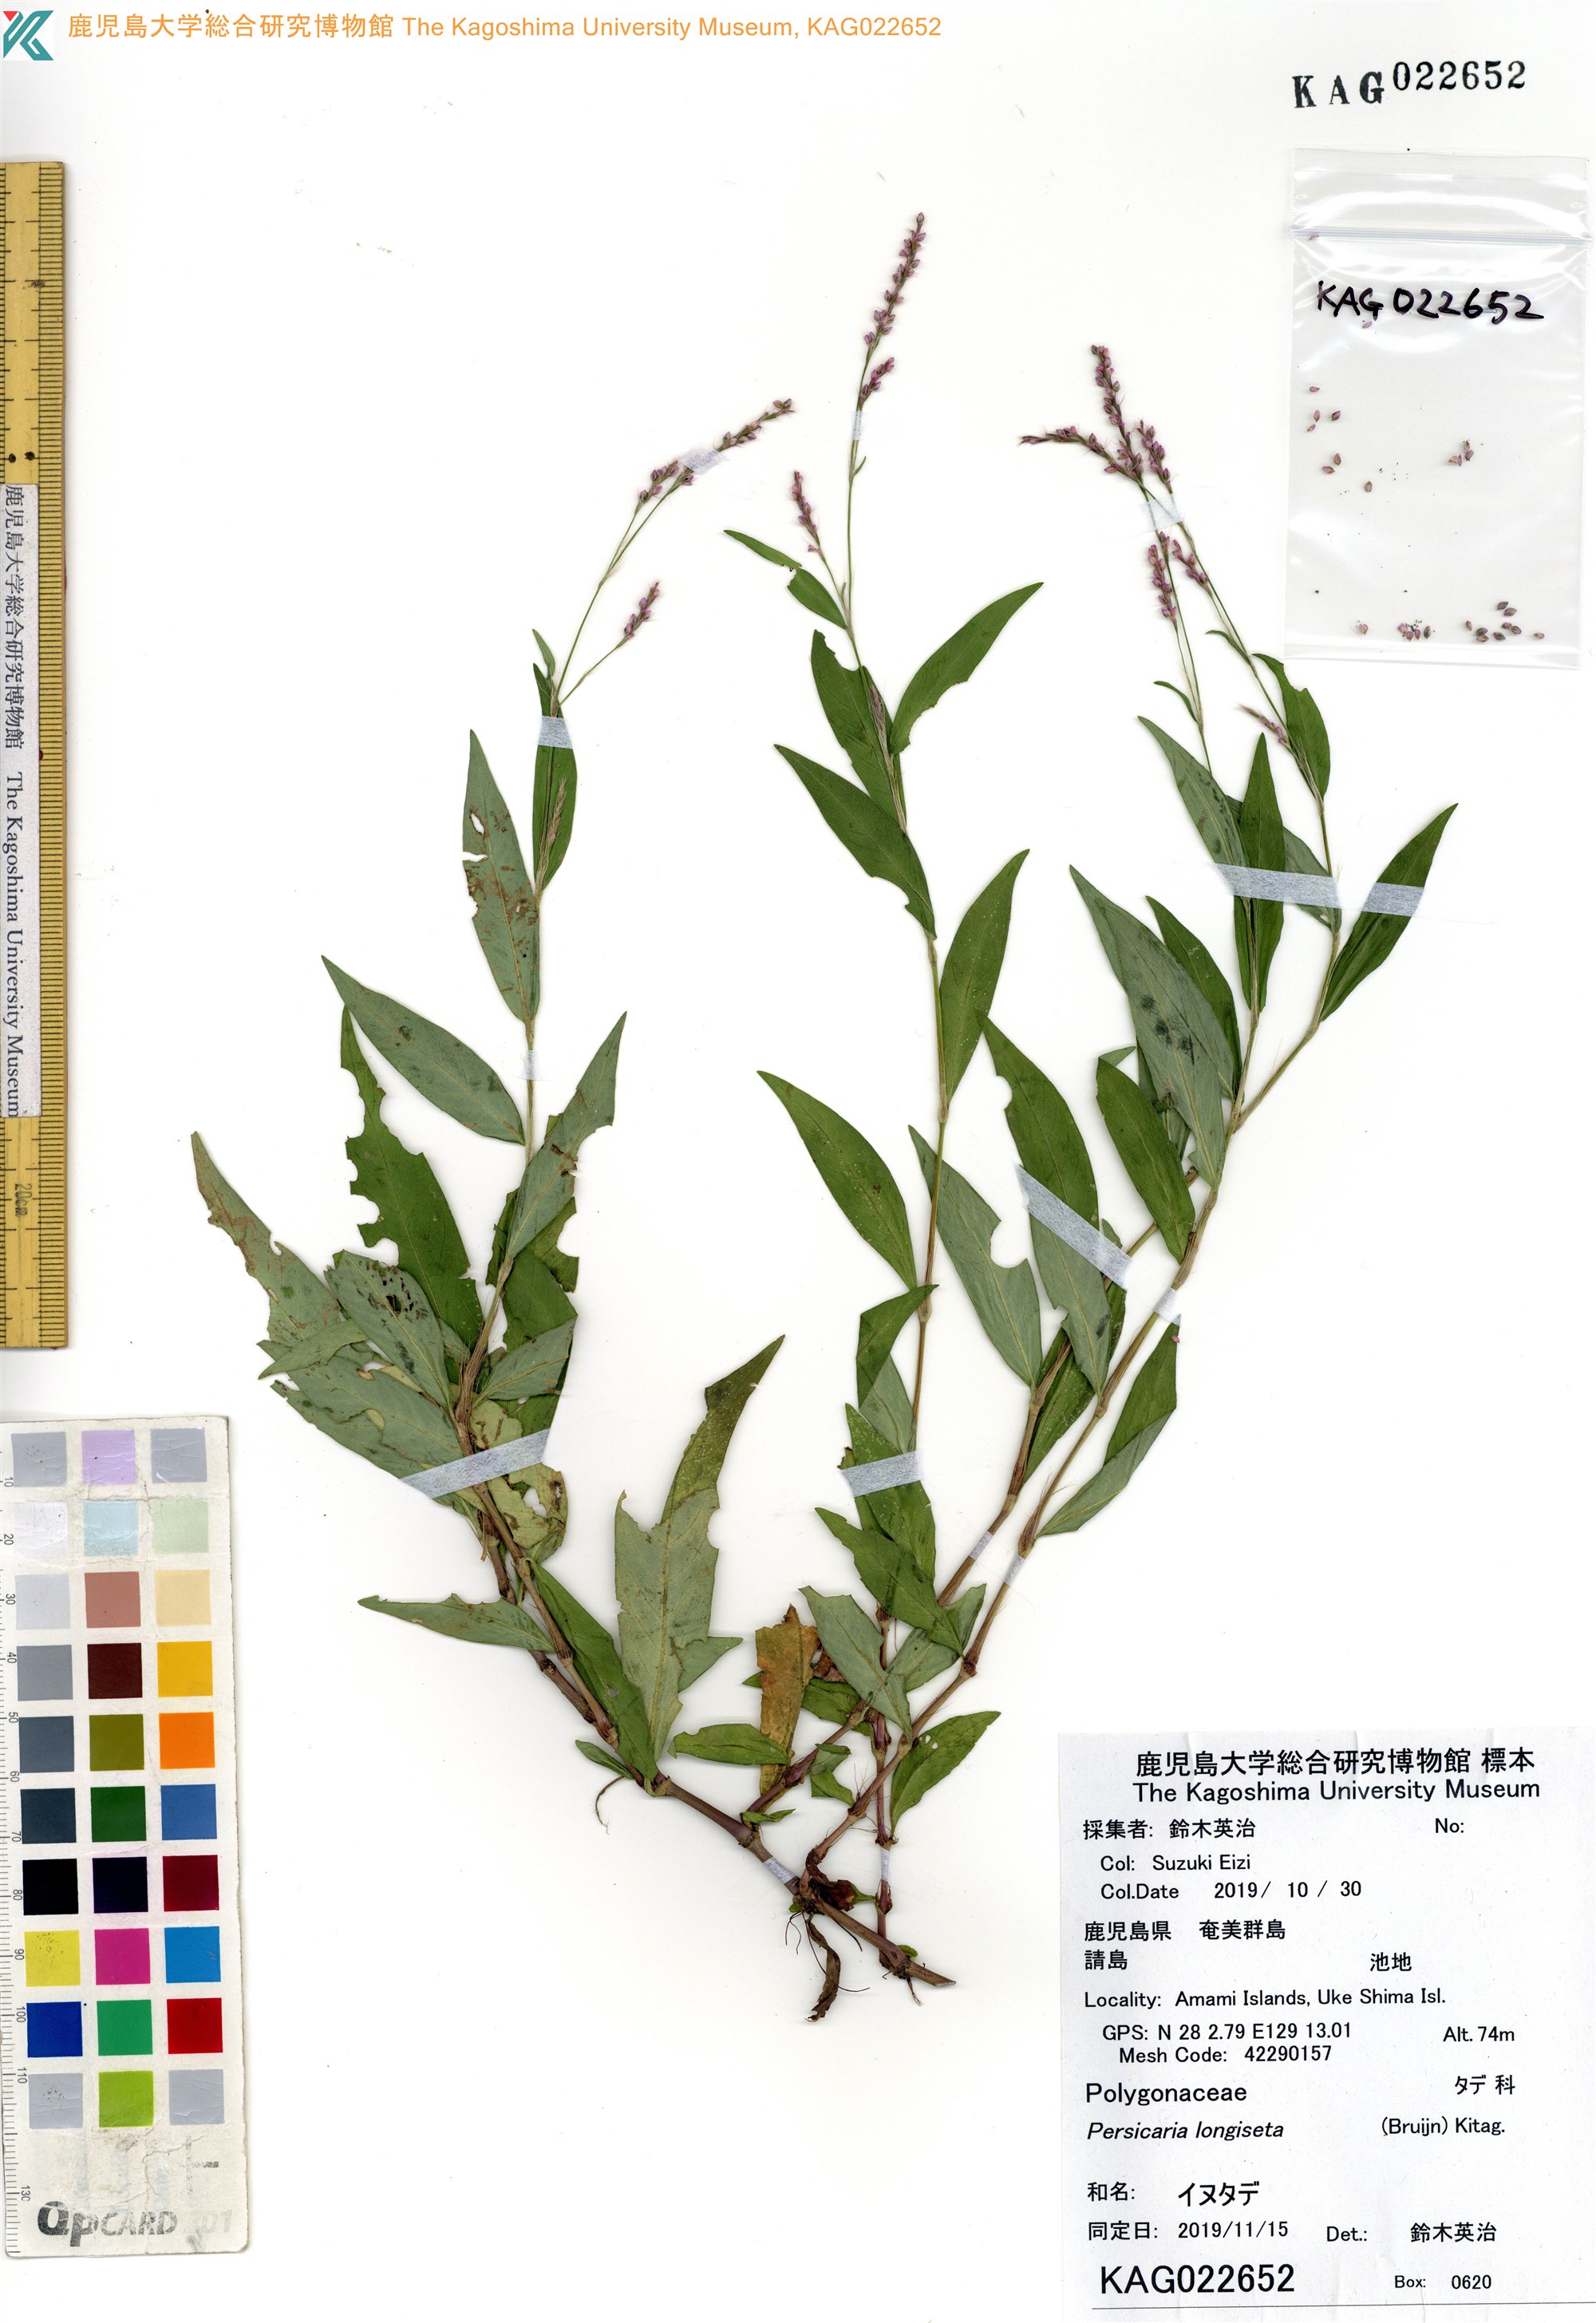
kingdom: Plantae
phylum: Tracheophyta
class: Magnoliopsida
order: Caryophyllales
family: Polygonaceae
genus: Persicaria
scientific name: Persicaria longiseta
